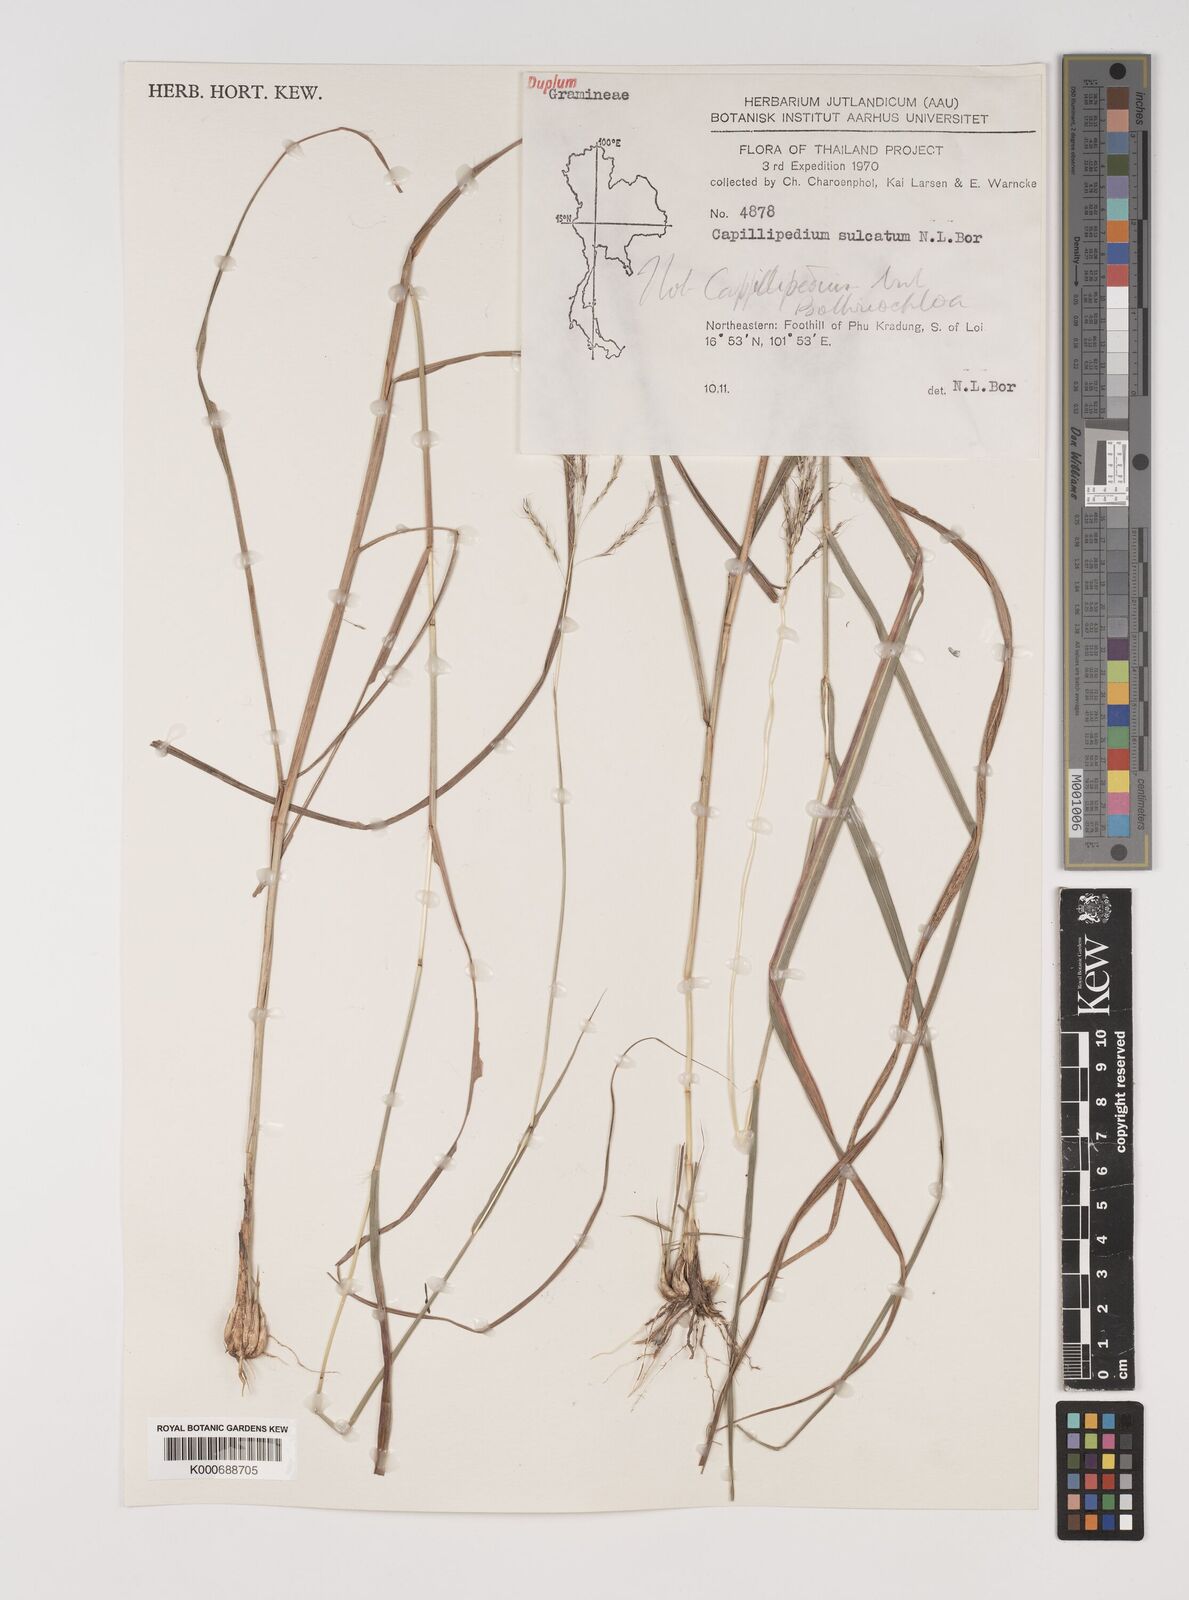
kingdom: Plantae
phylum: Tracheophyta
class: Liliopsida
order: Poales
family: Poaceae
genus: Bothriochloa
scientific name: Bothriochloa bladhii
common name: Caucasian bluestem
